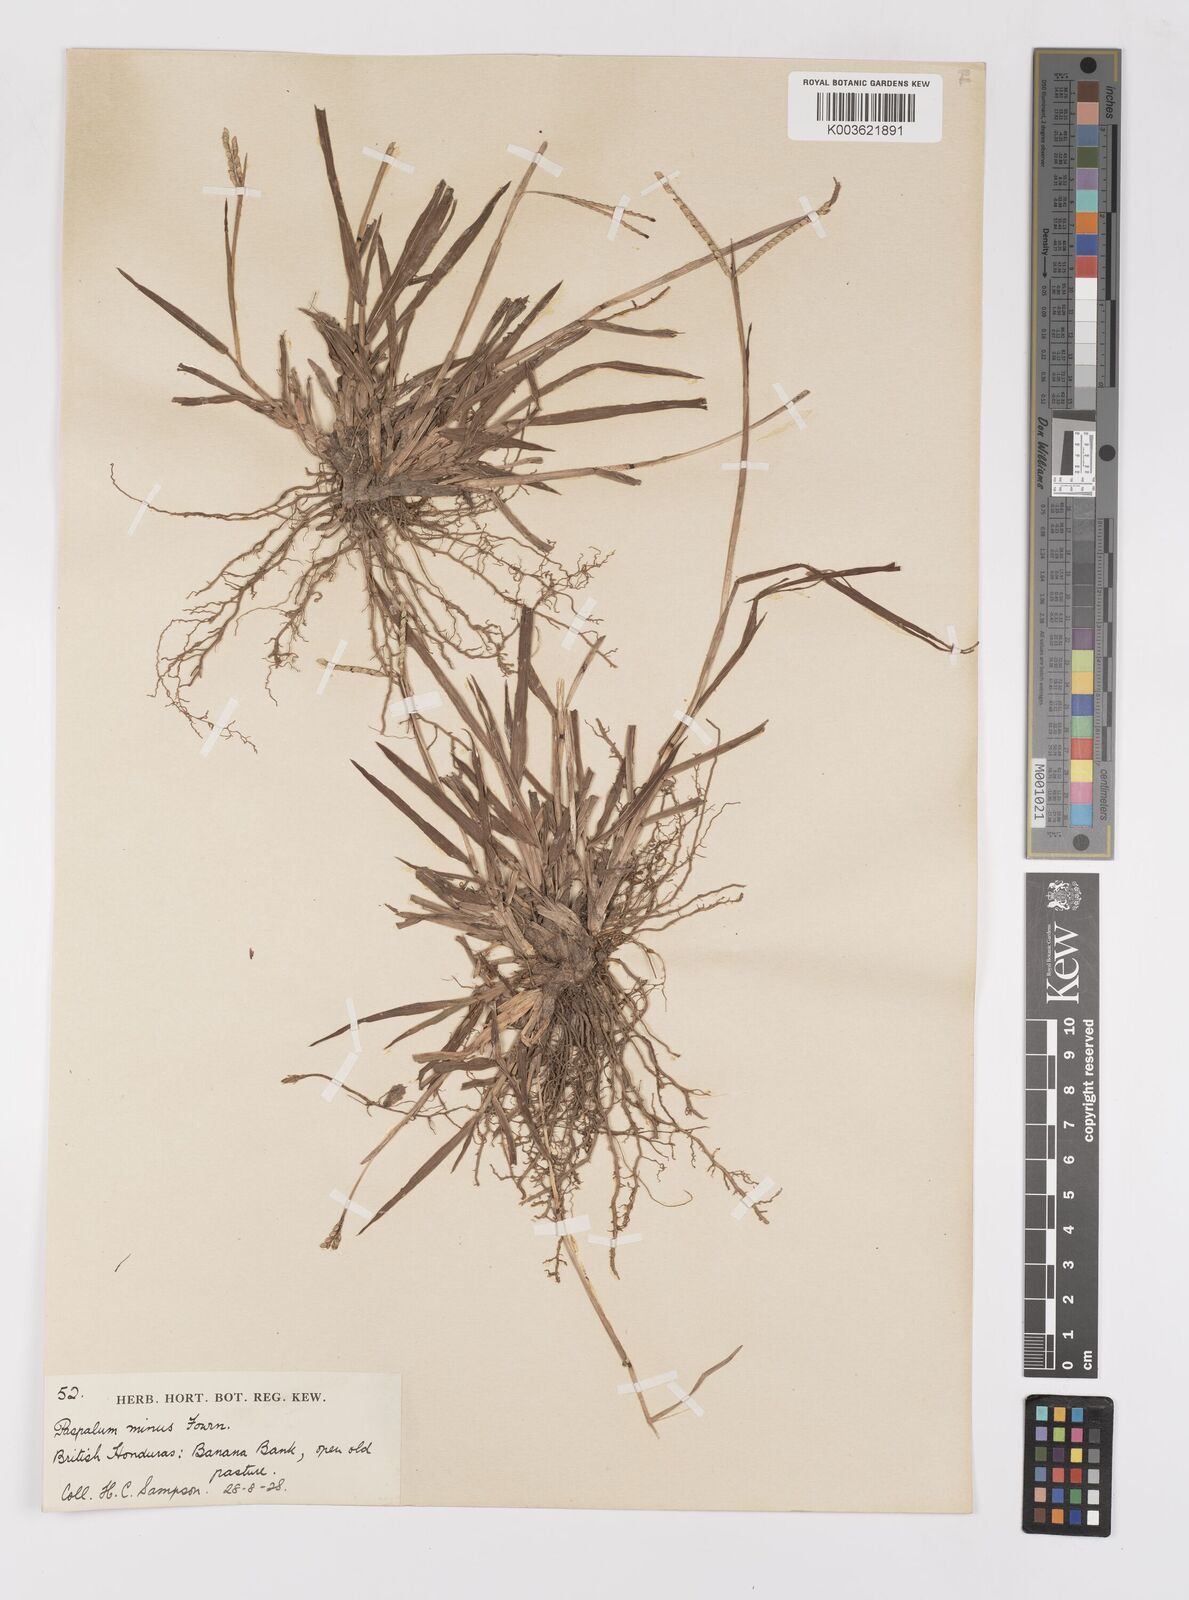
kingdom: Plantae
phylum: Tracheophyta
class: Liliopsida
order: Poales
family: Poaceae
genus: Paspalum
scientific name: Paspalum minus
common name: Matted paspalum
